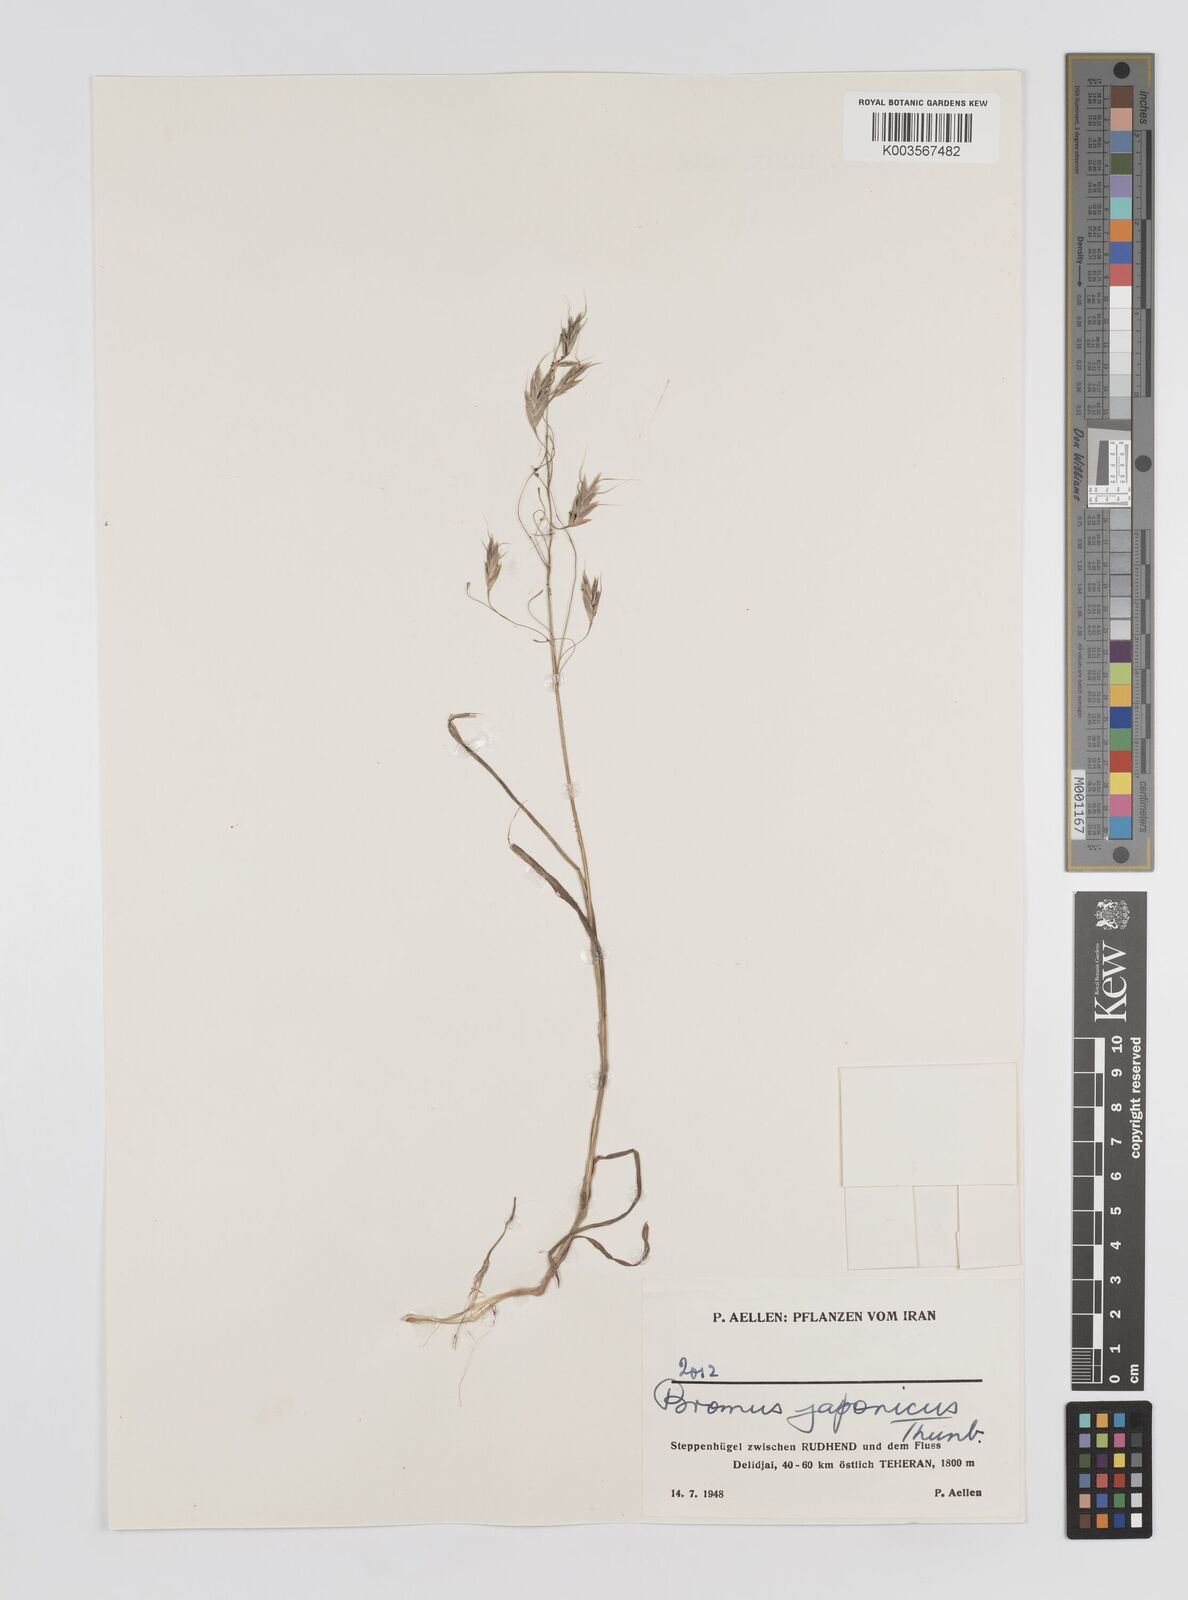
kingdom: Plantae
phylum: Tracheophyta
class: Liliopsida
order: Poales
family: Poaceae
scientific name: Poaceae
